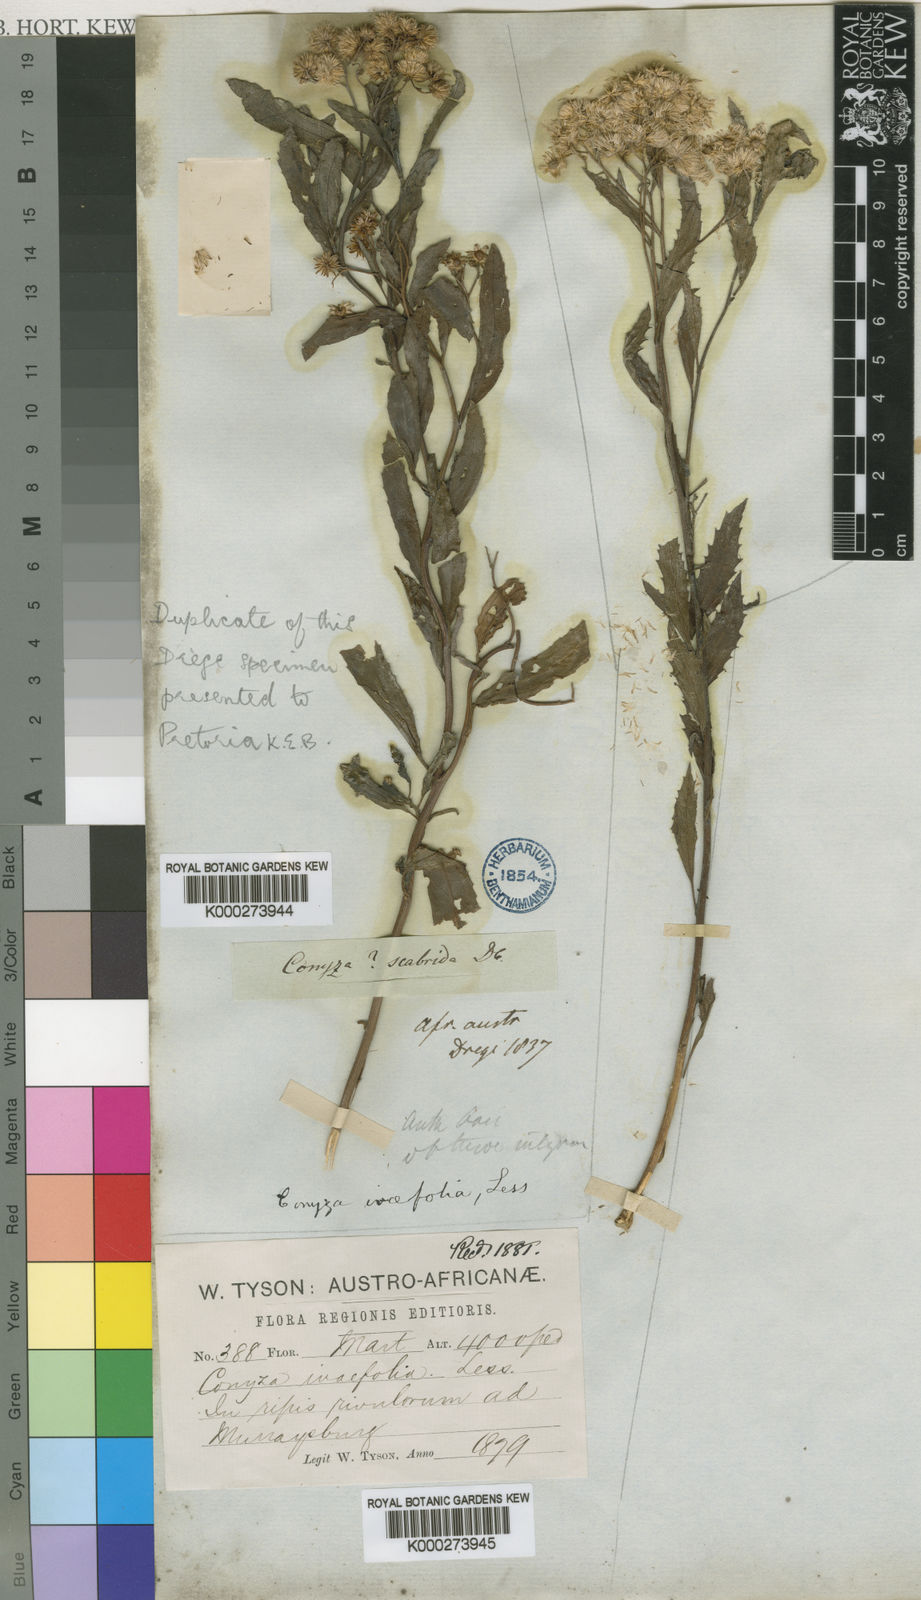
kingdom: Plantae
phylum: Tracheophyta
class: Magnoliopsida
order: Asterales
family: Asteraceae
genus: Nidorella
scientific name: Nidorella ivifolia
